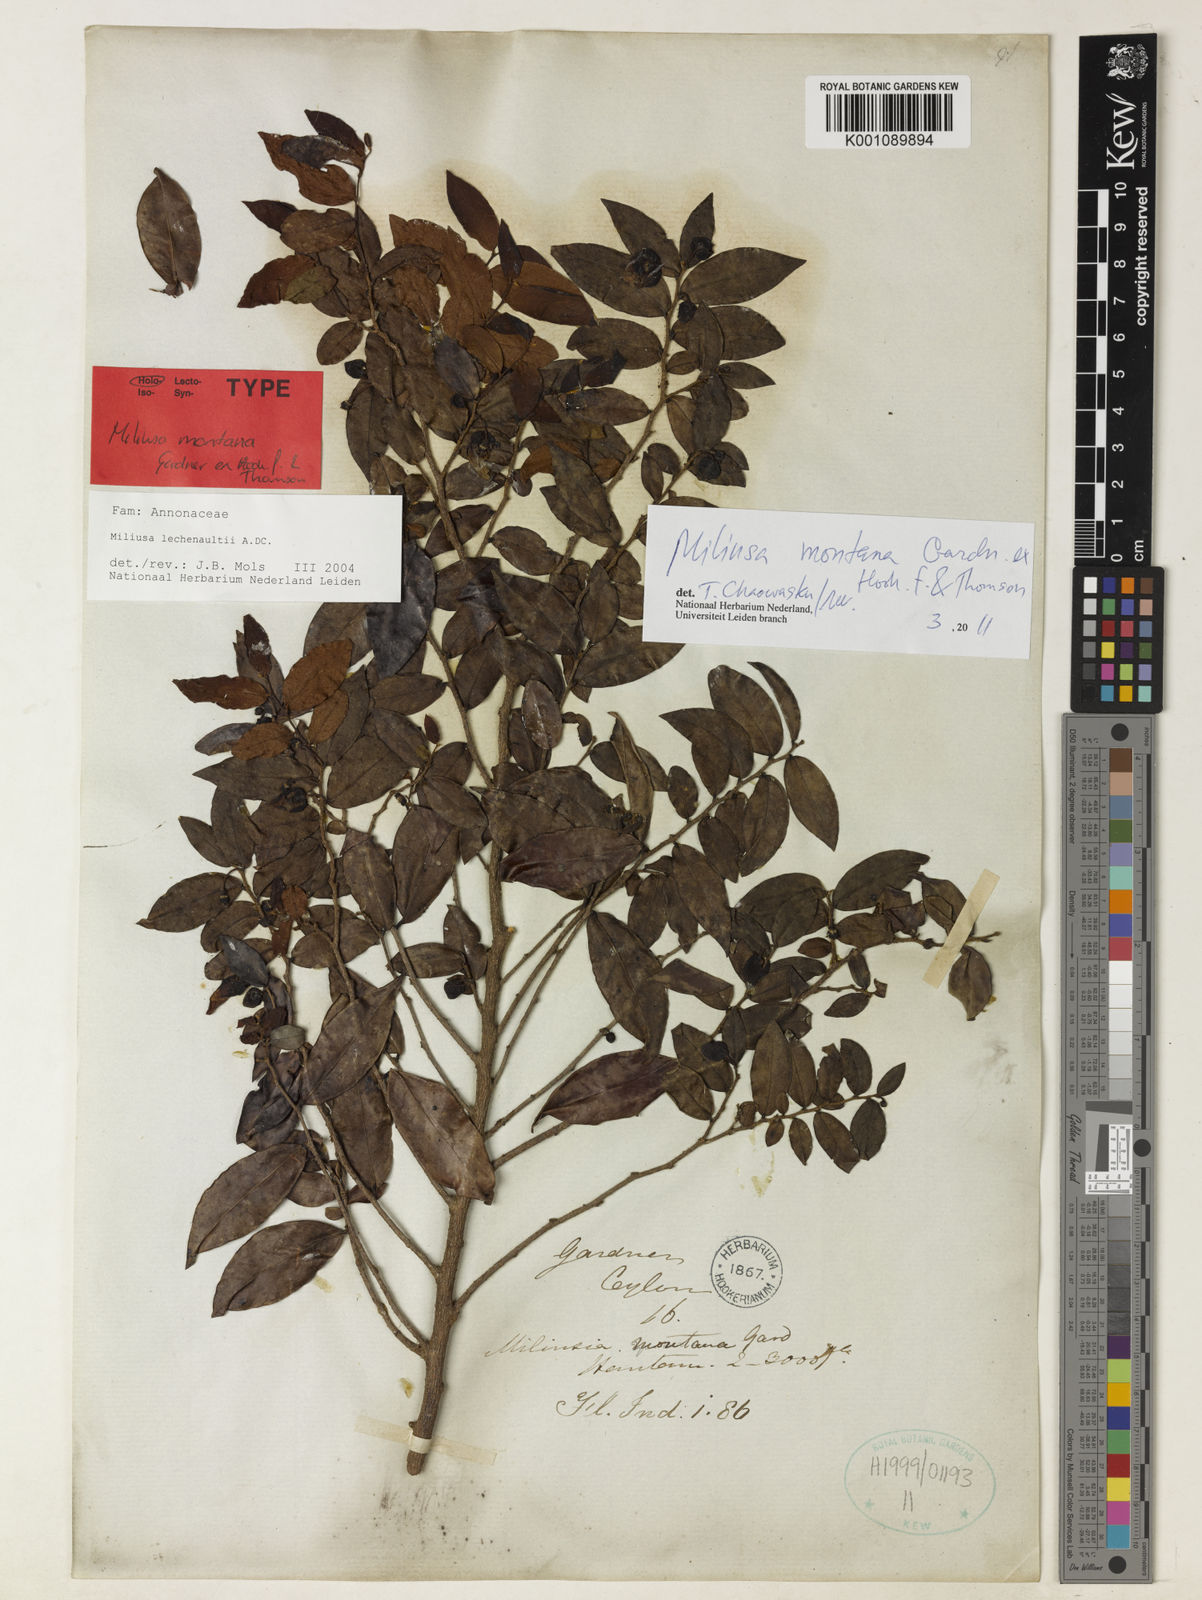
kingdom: Plantae
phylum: Tracheophyta
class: Magnoliopsida
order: Magnoliales
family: Annonaceae
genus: Miliusa
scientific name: Miliusa montana
